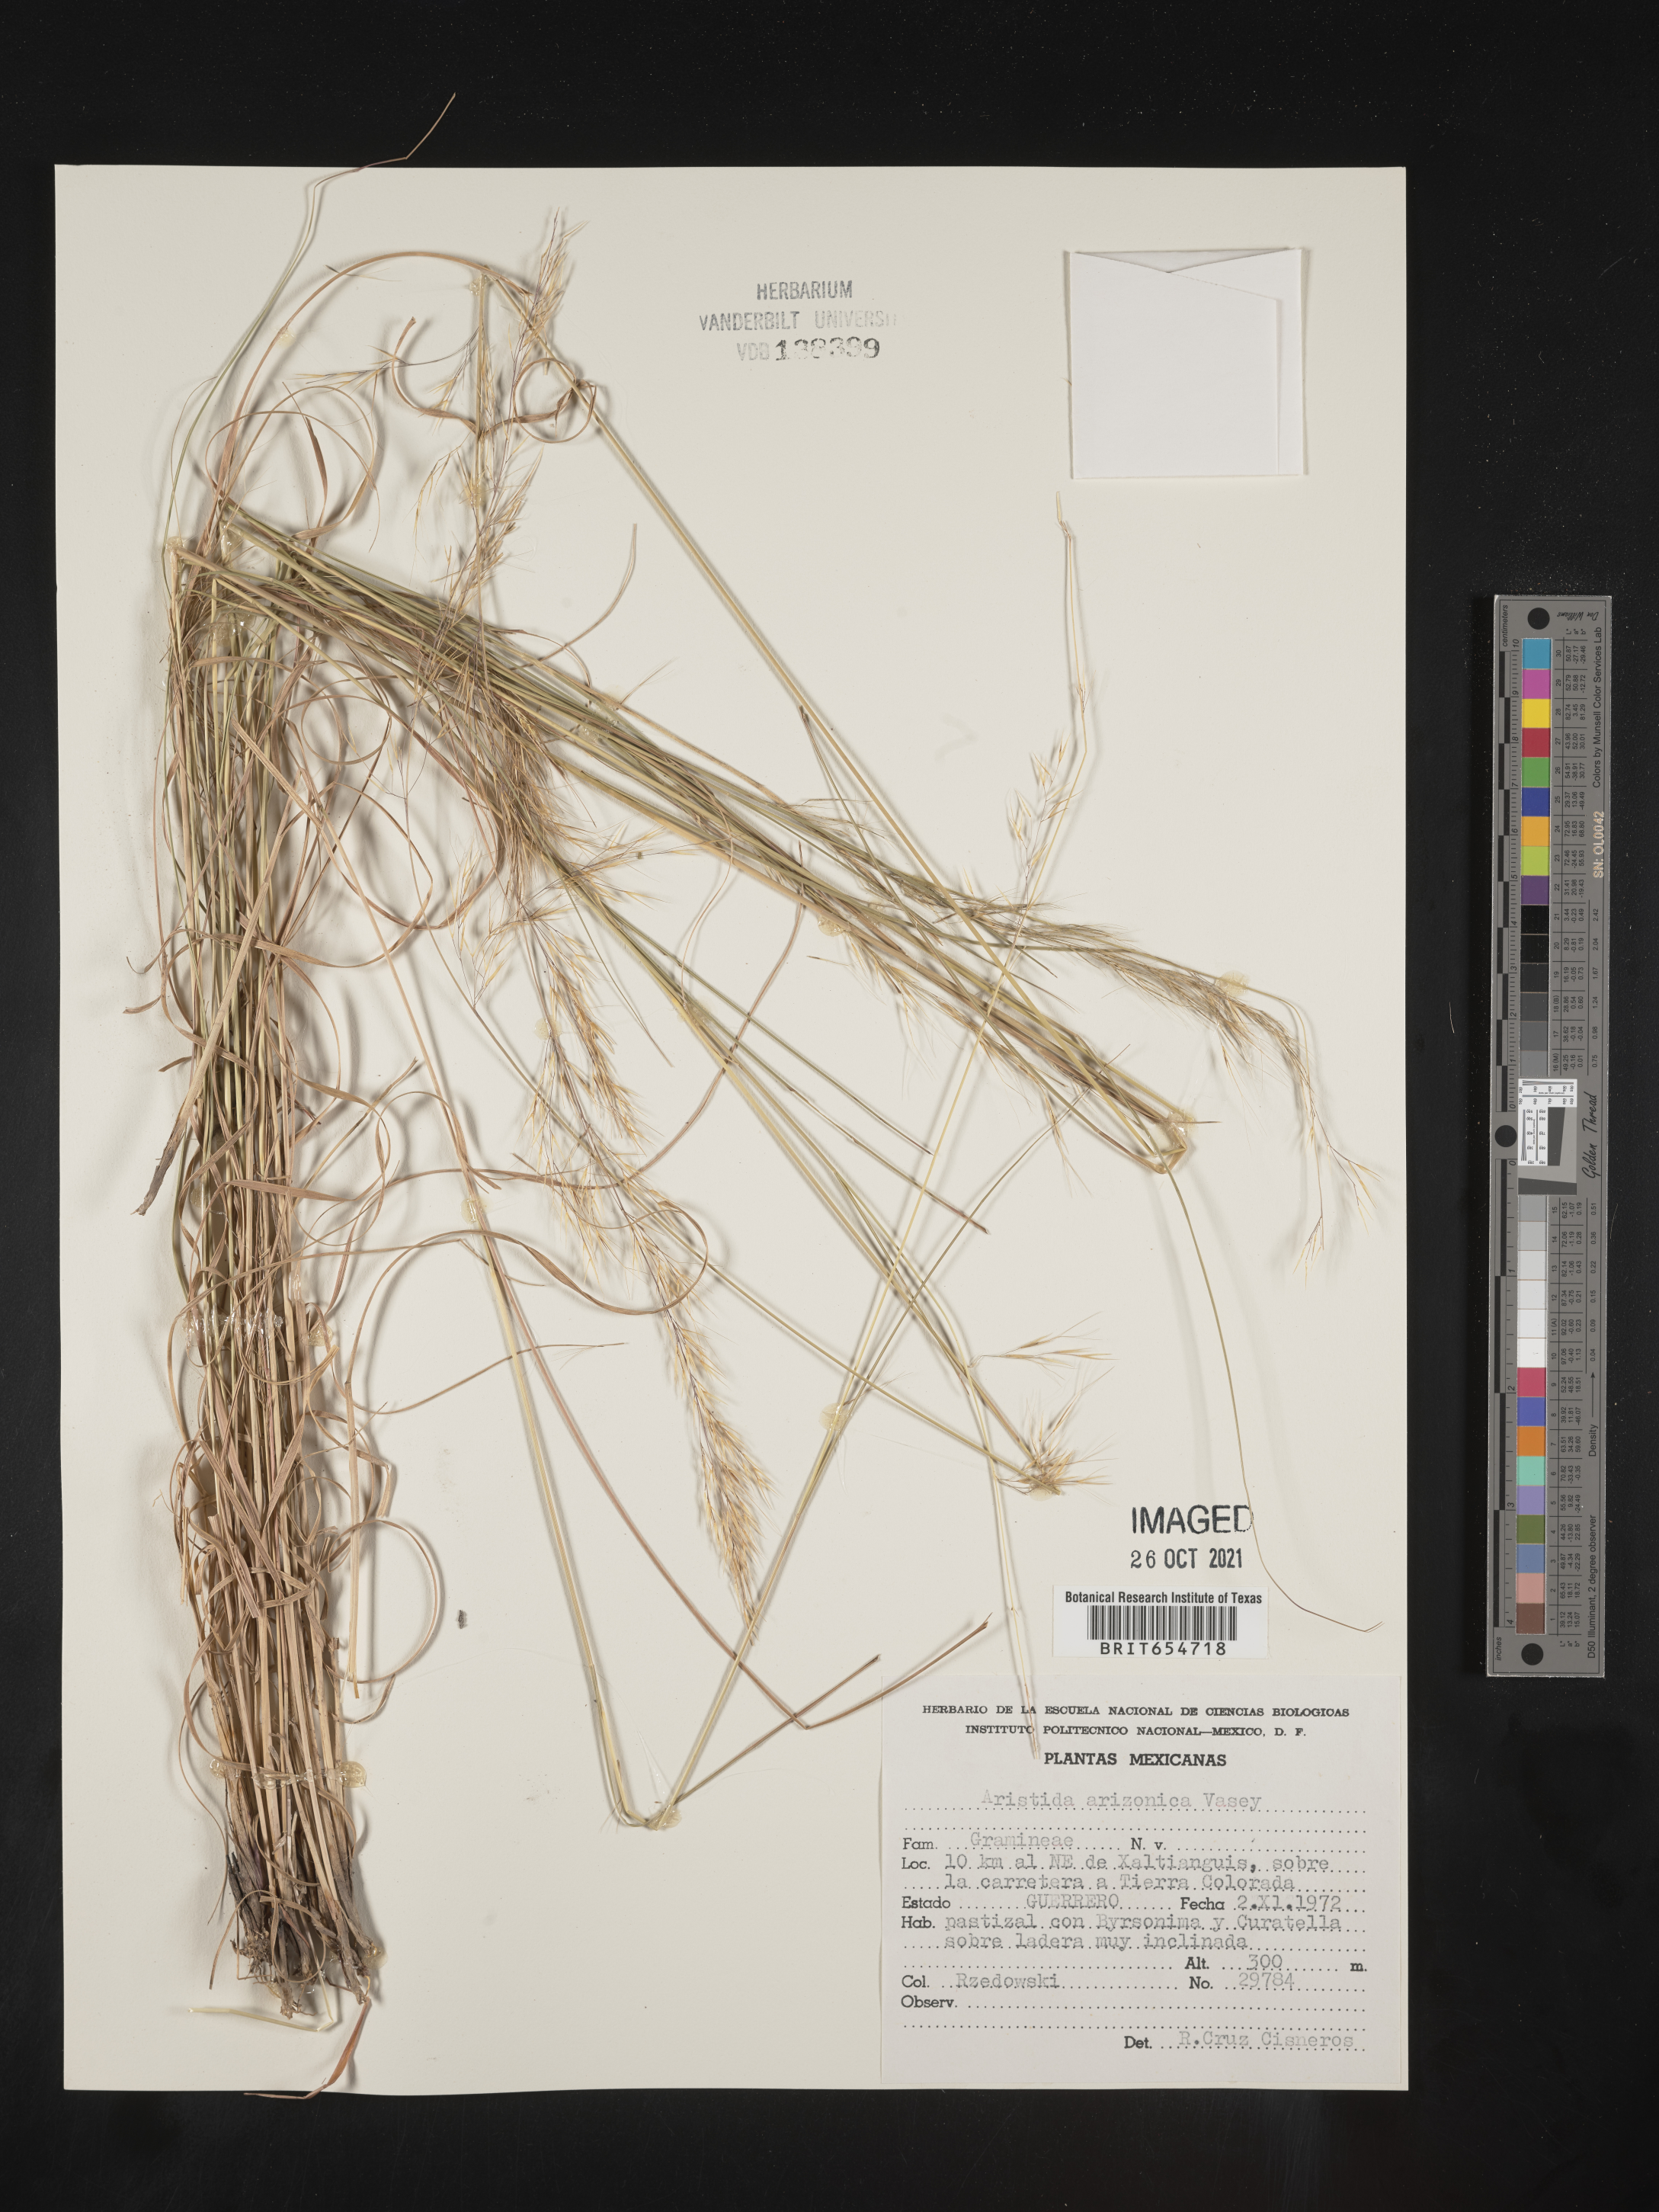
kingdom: Plantae
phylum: Tracheophyta
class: Liliopsida
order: Poales
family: Poaceae
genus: Aristida
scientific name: Aristida
